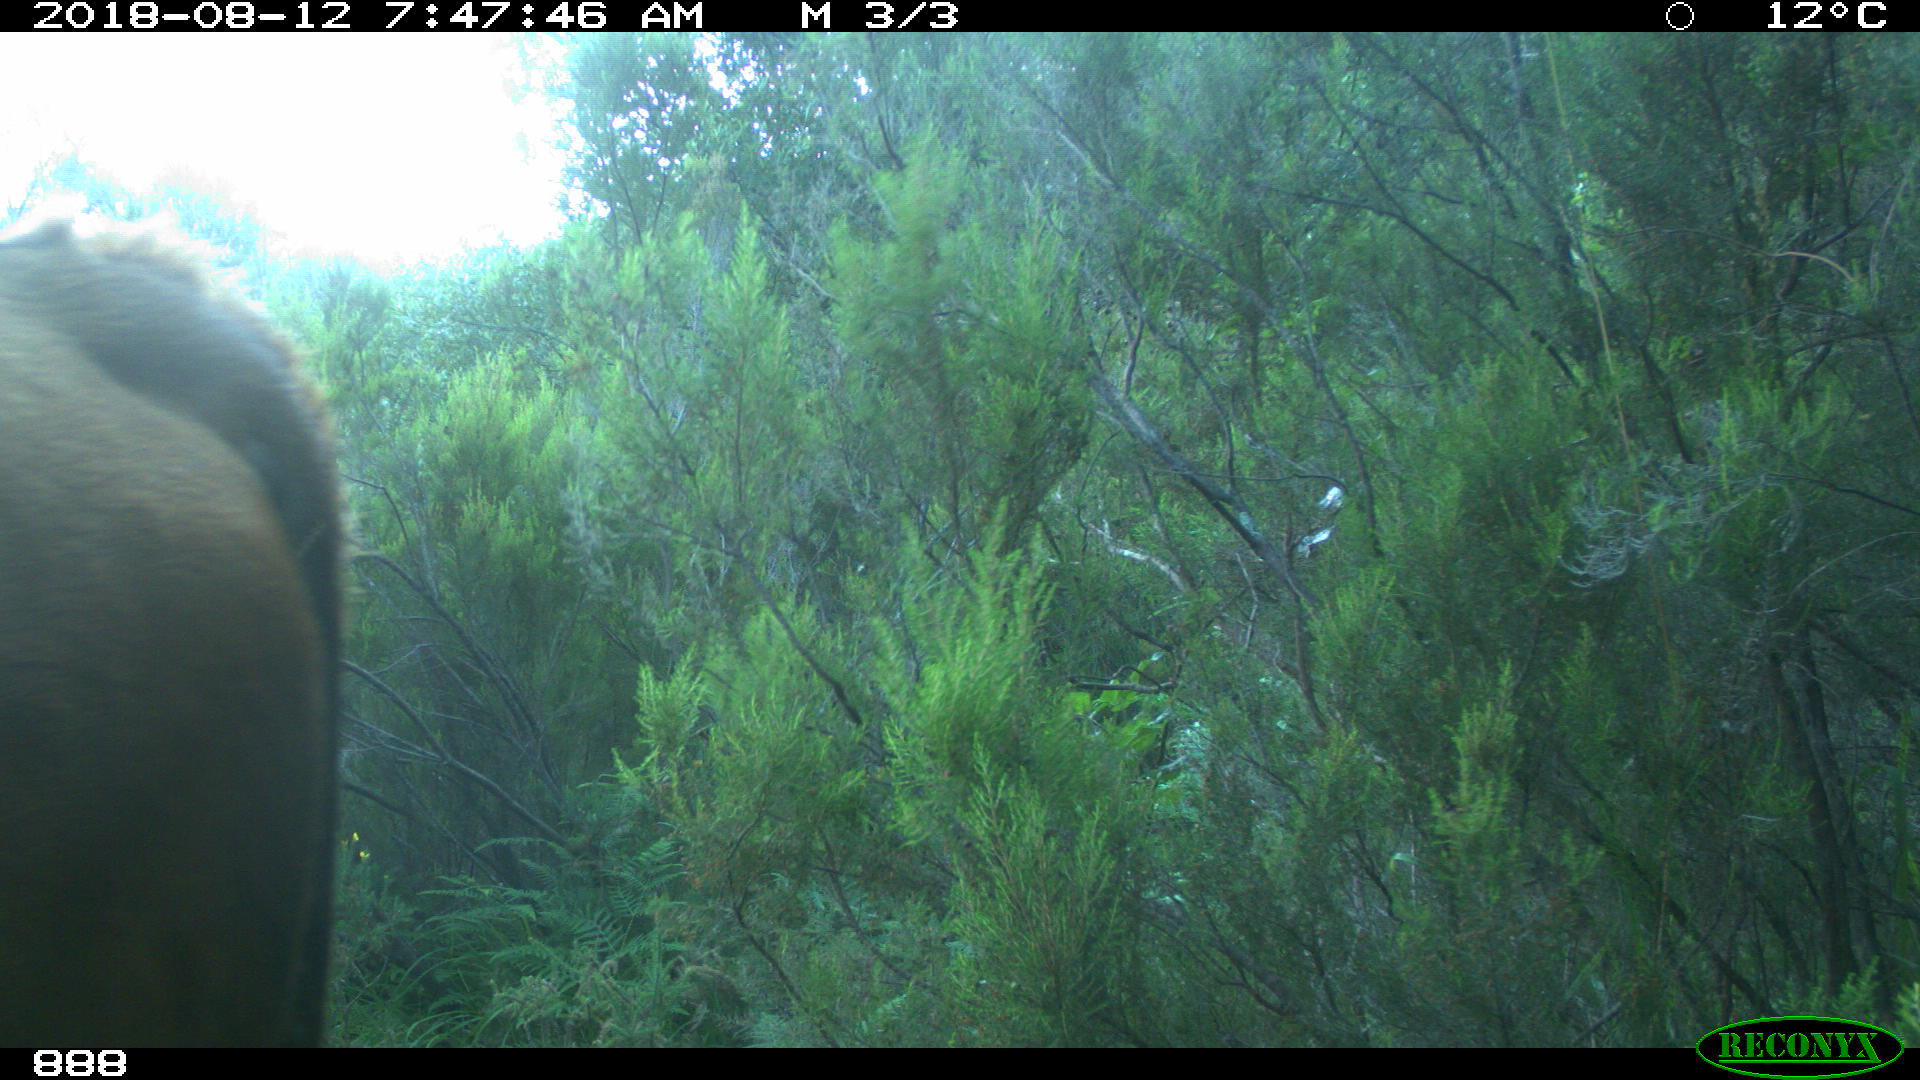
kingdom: Animalia
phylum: Chordata
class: Mammalia
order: Artiodactyla
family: Bovidae
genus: Bos
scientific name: Bos taurus
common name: Domesticated cattle
